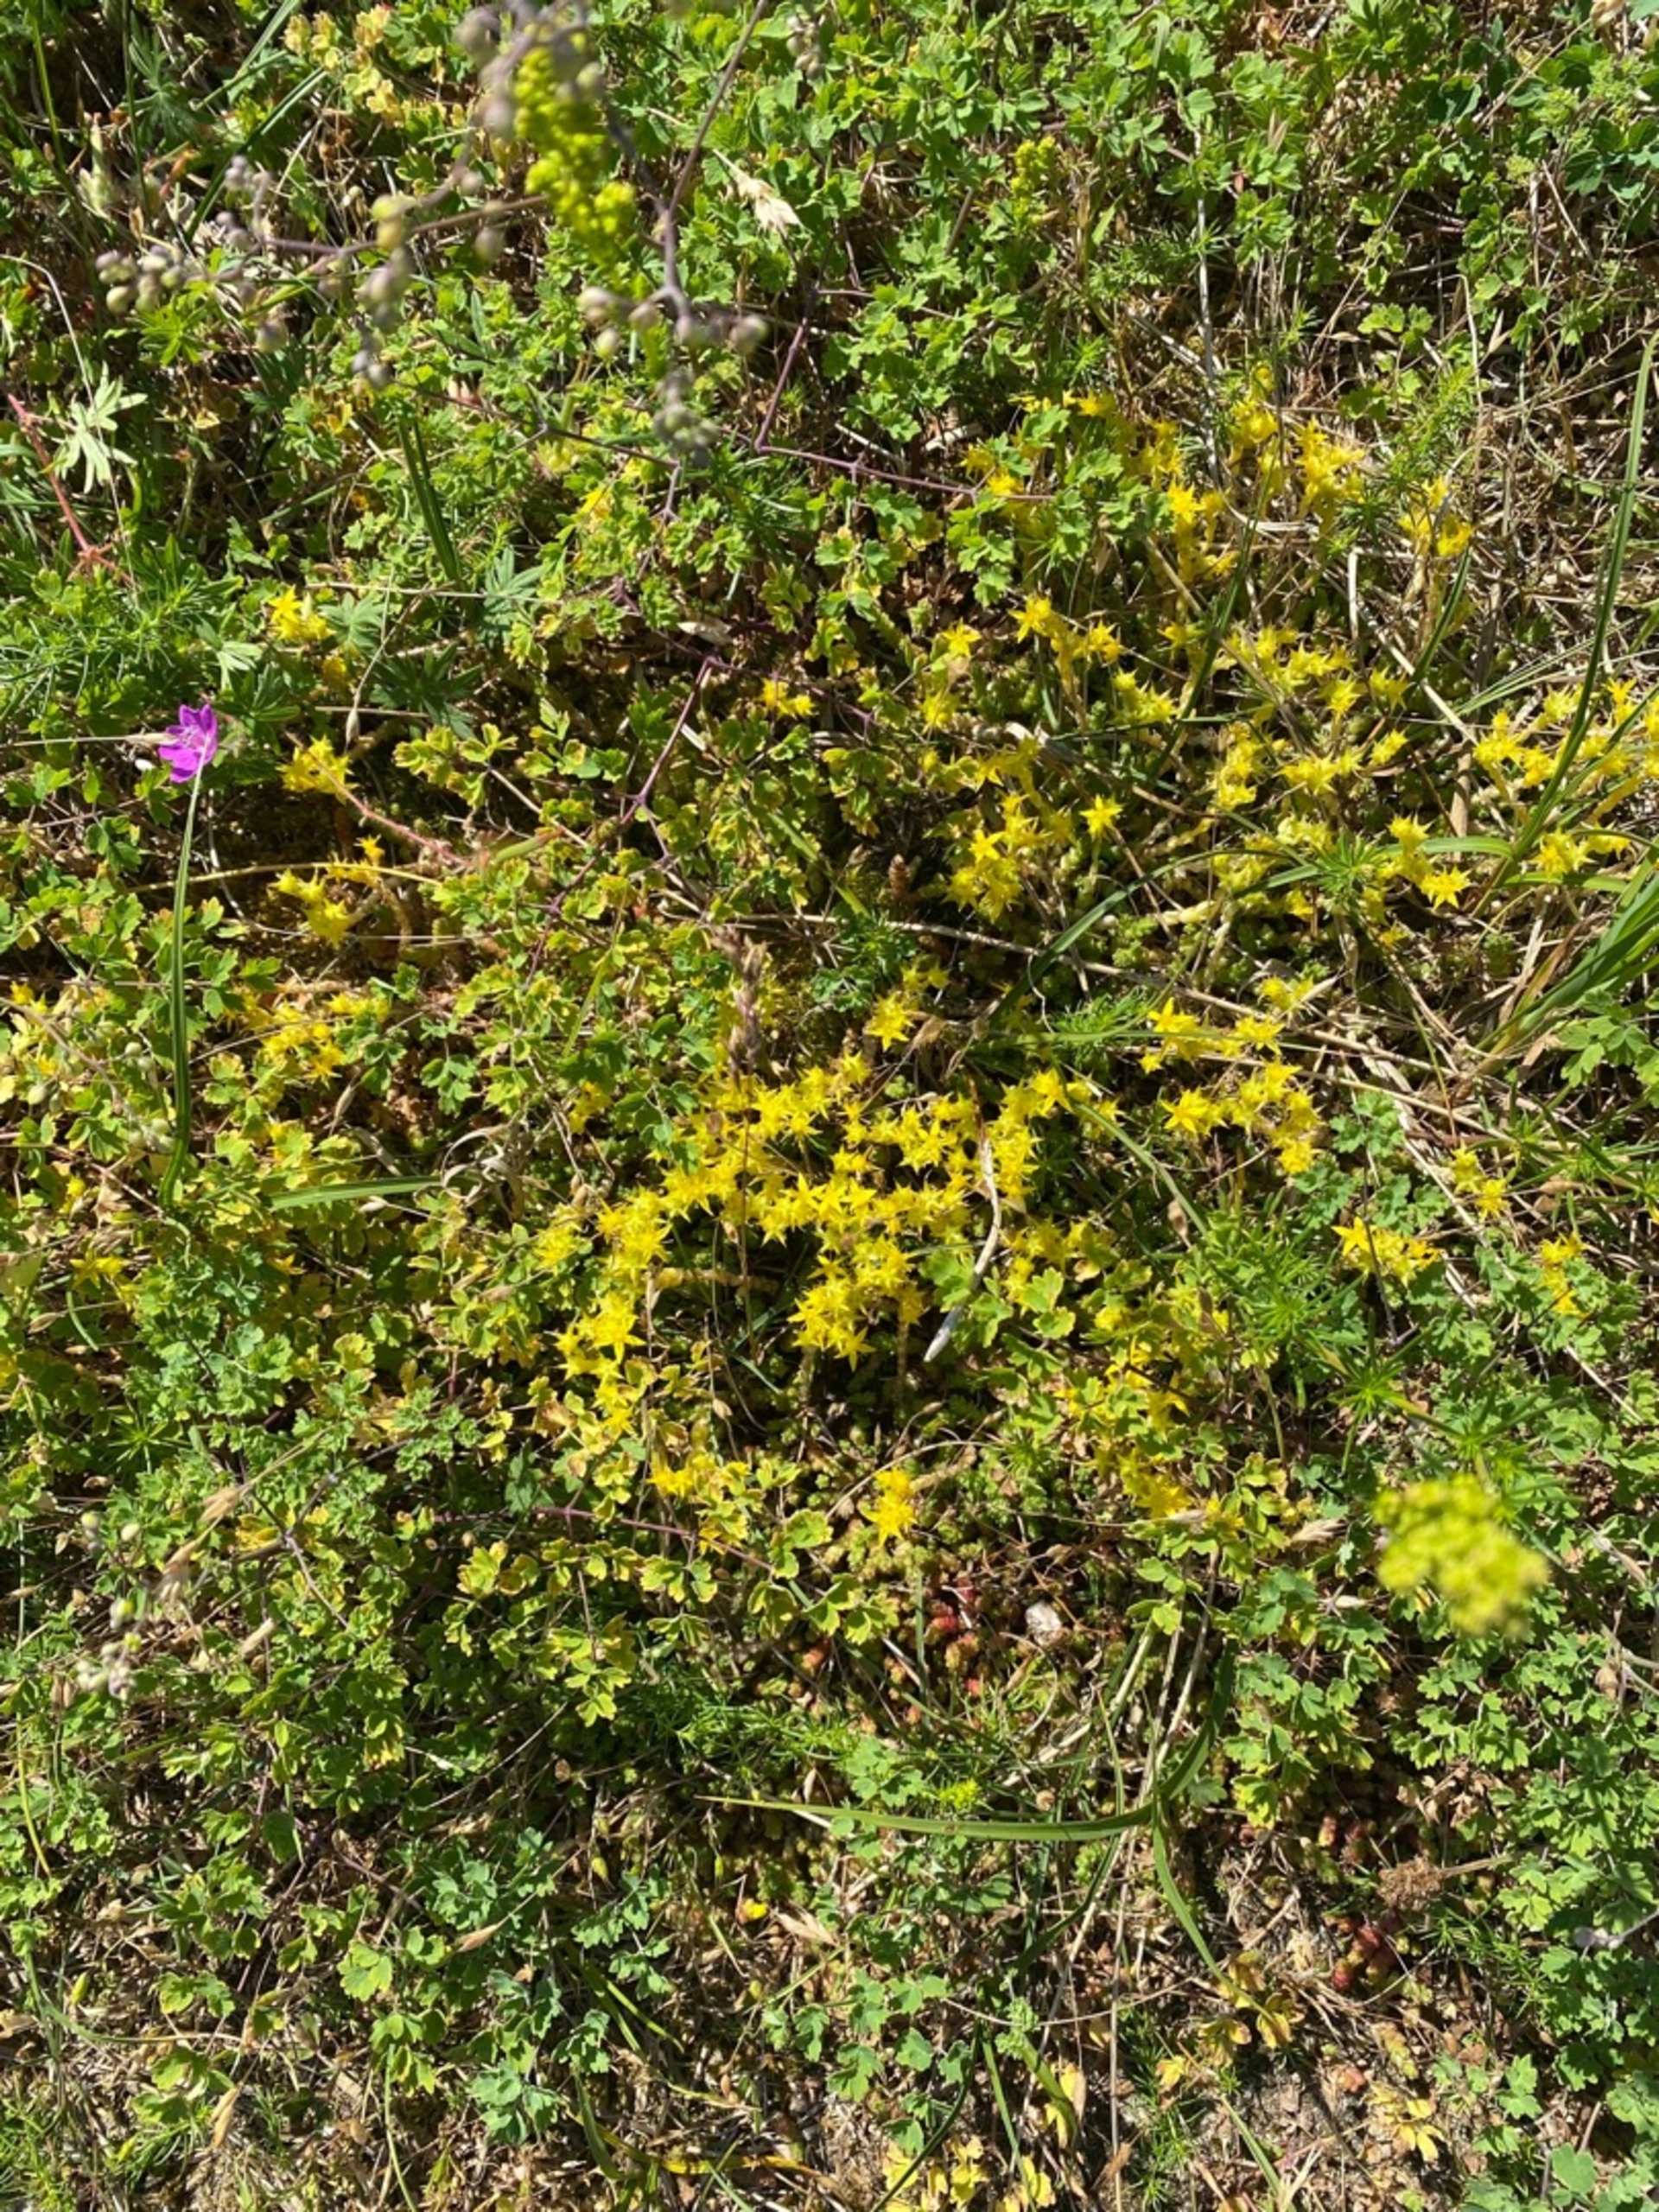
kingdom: Plantae
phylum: Tracheophyta
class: Magnoliopsida
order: Saxifragales
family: Crassulaceae
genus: Sedum
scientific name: Sedum acre
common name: Bidende stenurt
